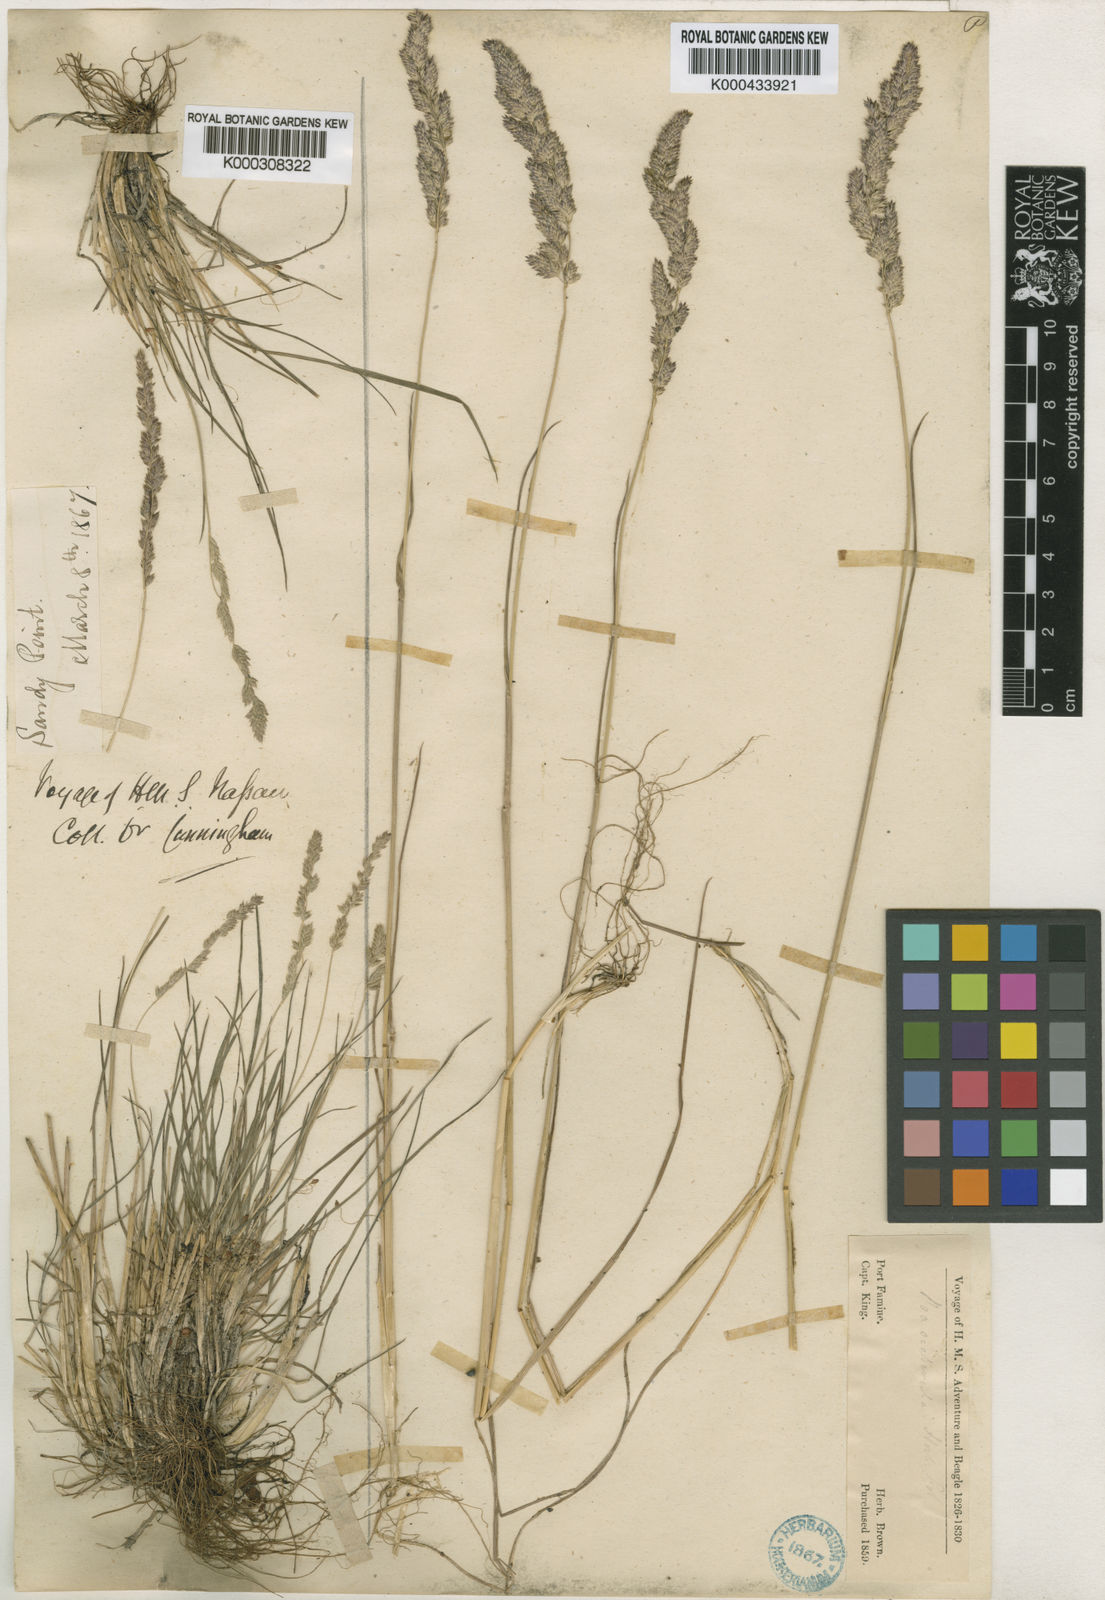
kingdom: Plantae
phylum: Tracheophyta
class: Liliopsida
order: Poales
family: Poaceae
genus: Poa
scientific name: Poa scaberula
